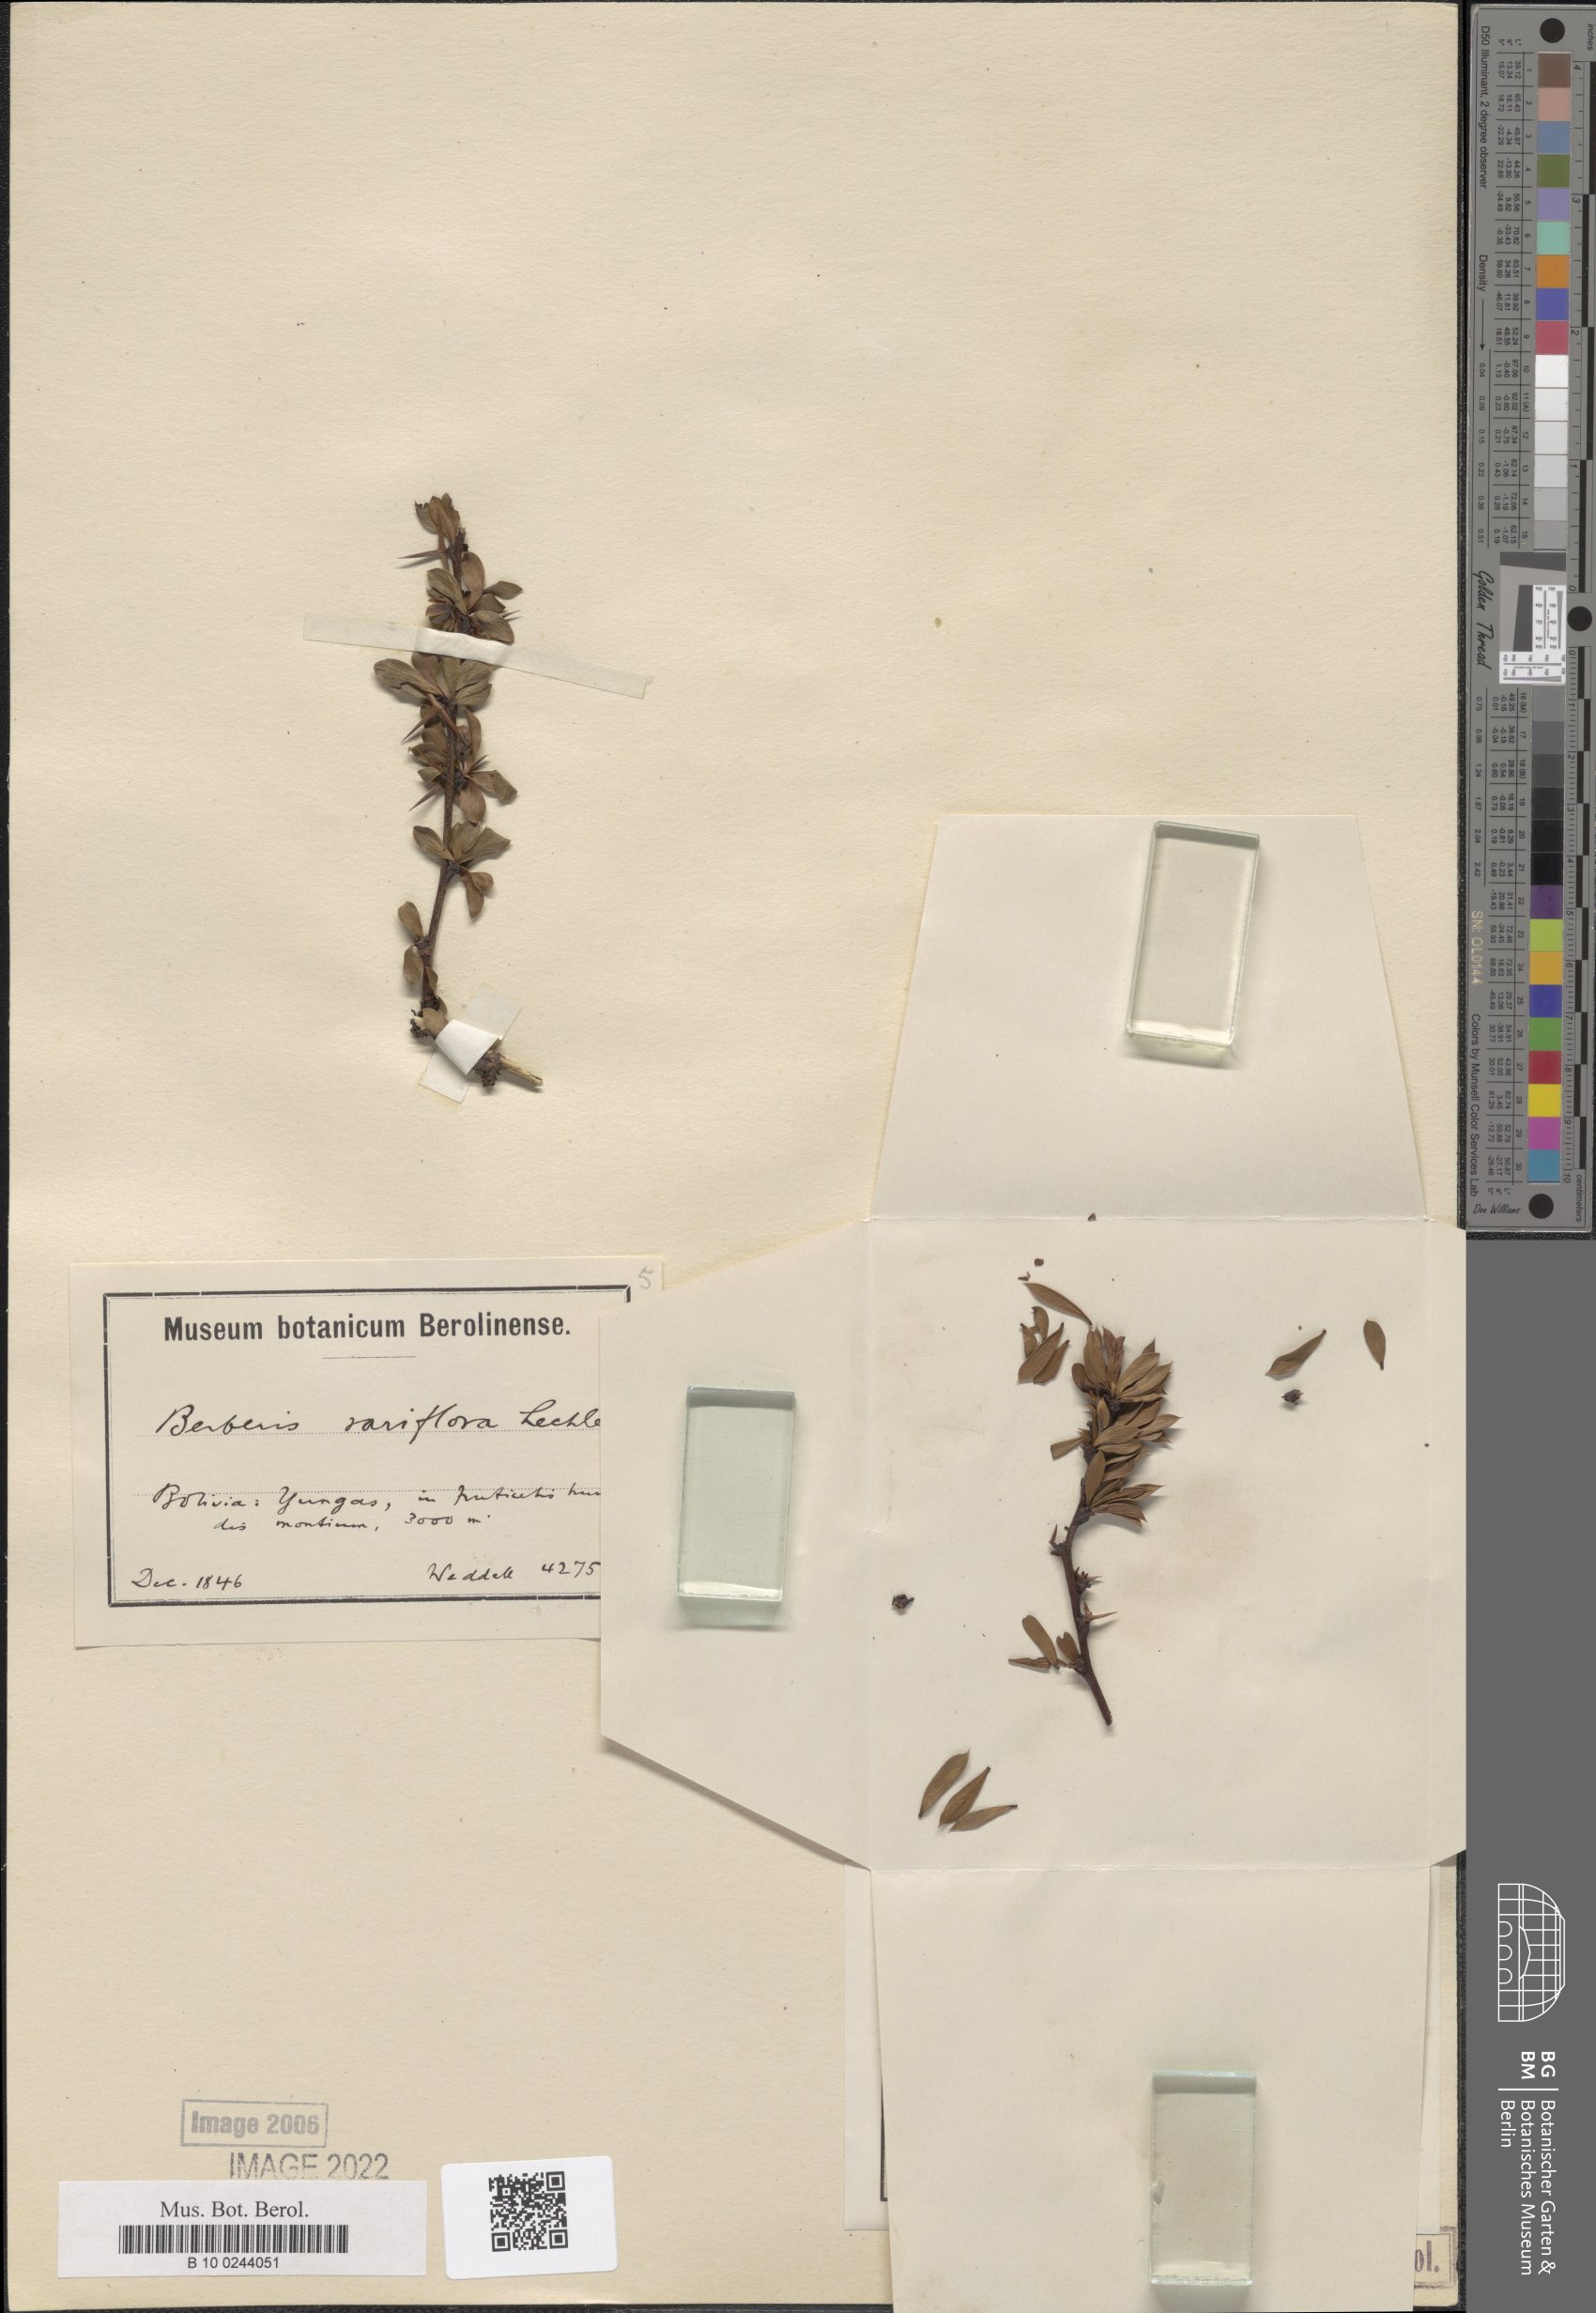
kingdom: Plantae
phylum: Tracheophyta
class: Magnoliopsida
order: Ranunculales
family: Berberidaceae
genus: Berberis
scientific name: Berberis rariflora
